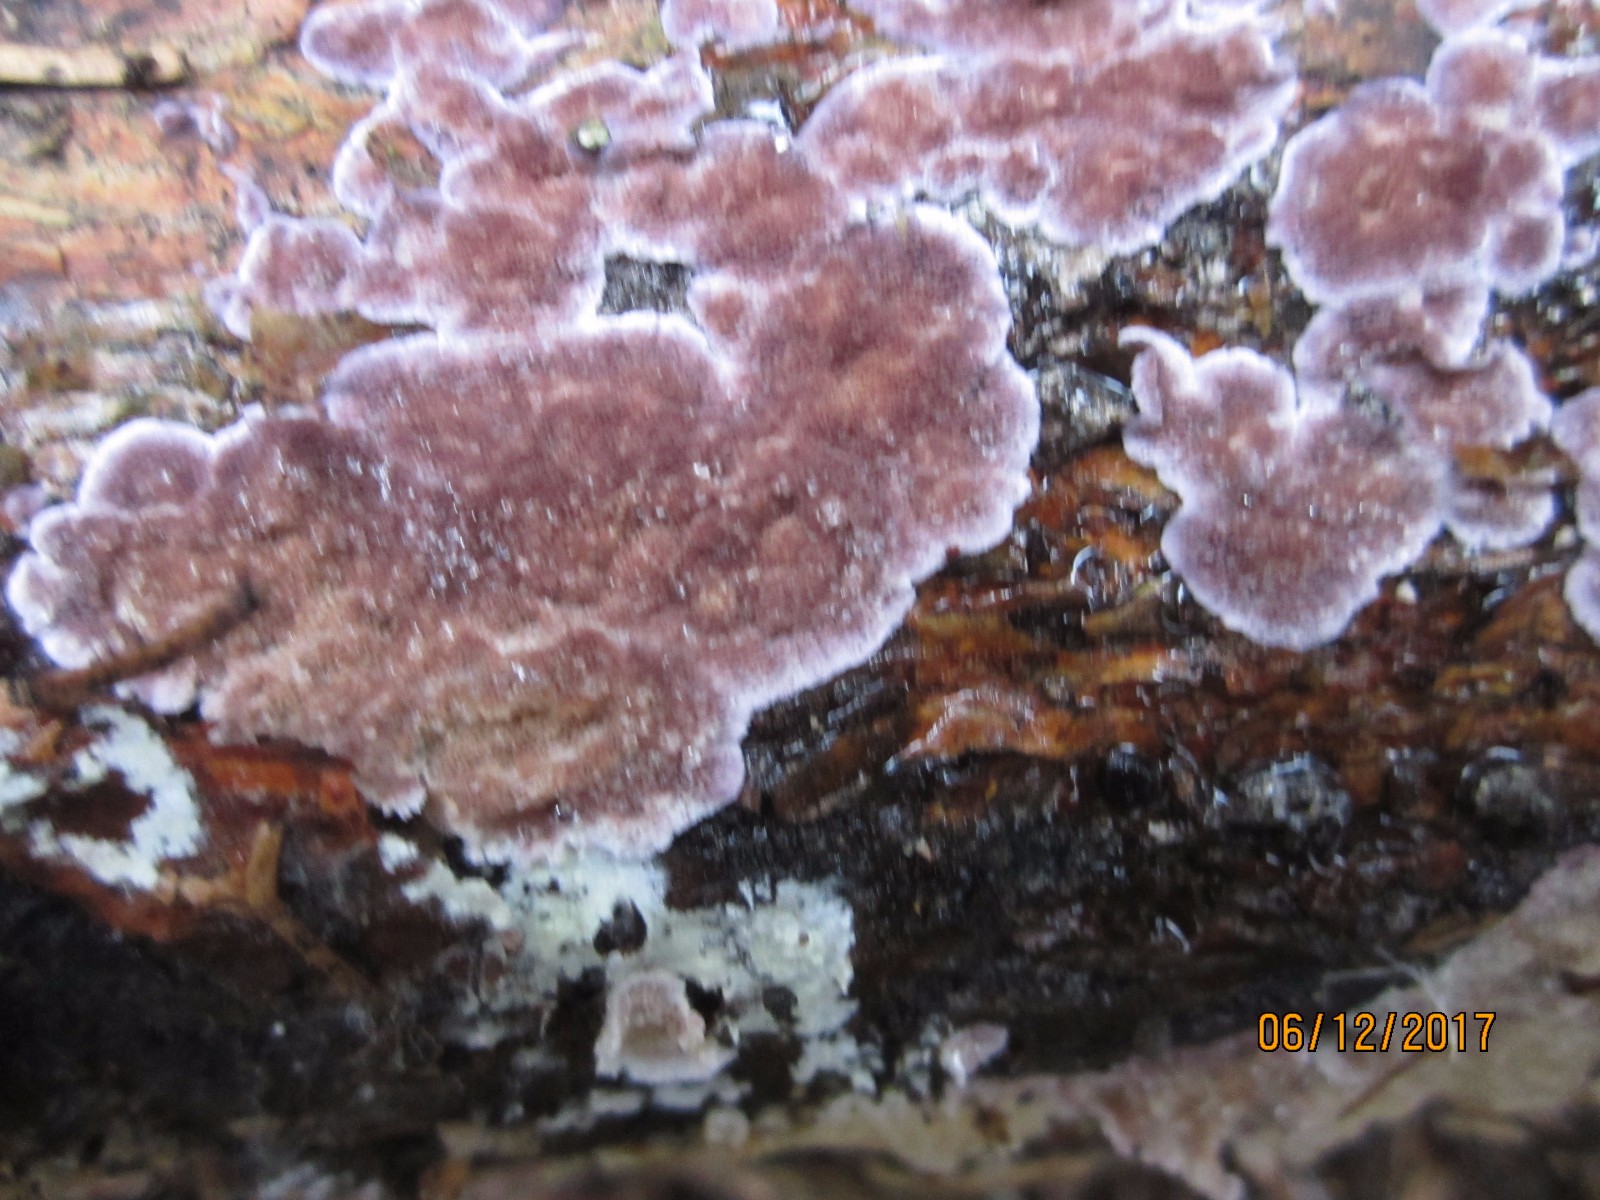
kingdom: Fungi
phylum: Basidiomycota
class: Agaricomycetes
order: Hymenochaetales
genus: Trichaptum
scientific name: Trichaptum abietinum
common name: almindelig violporesvamp
